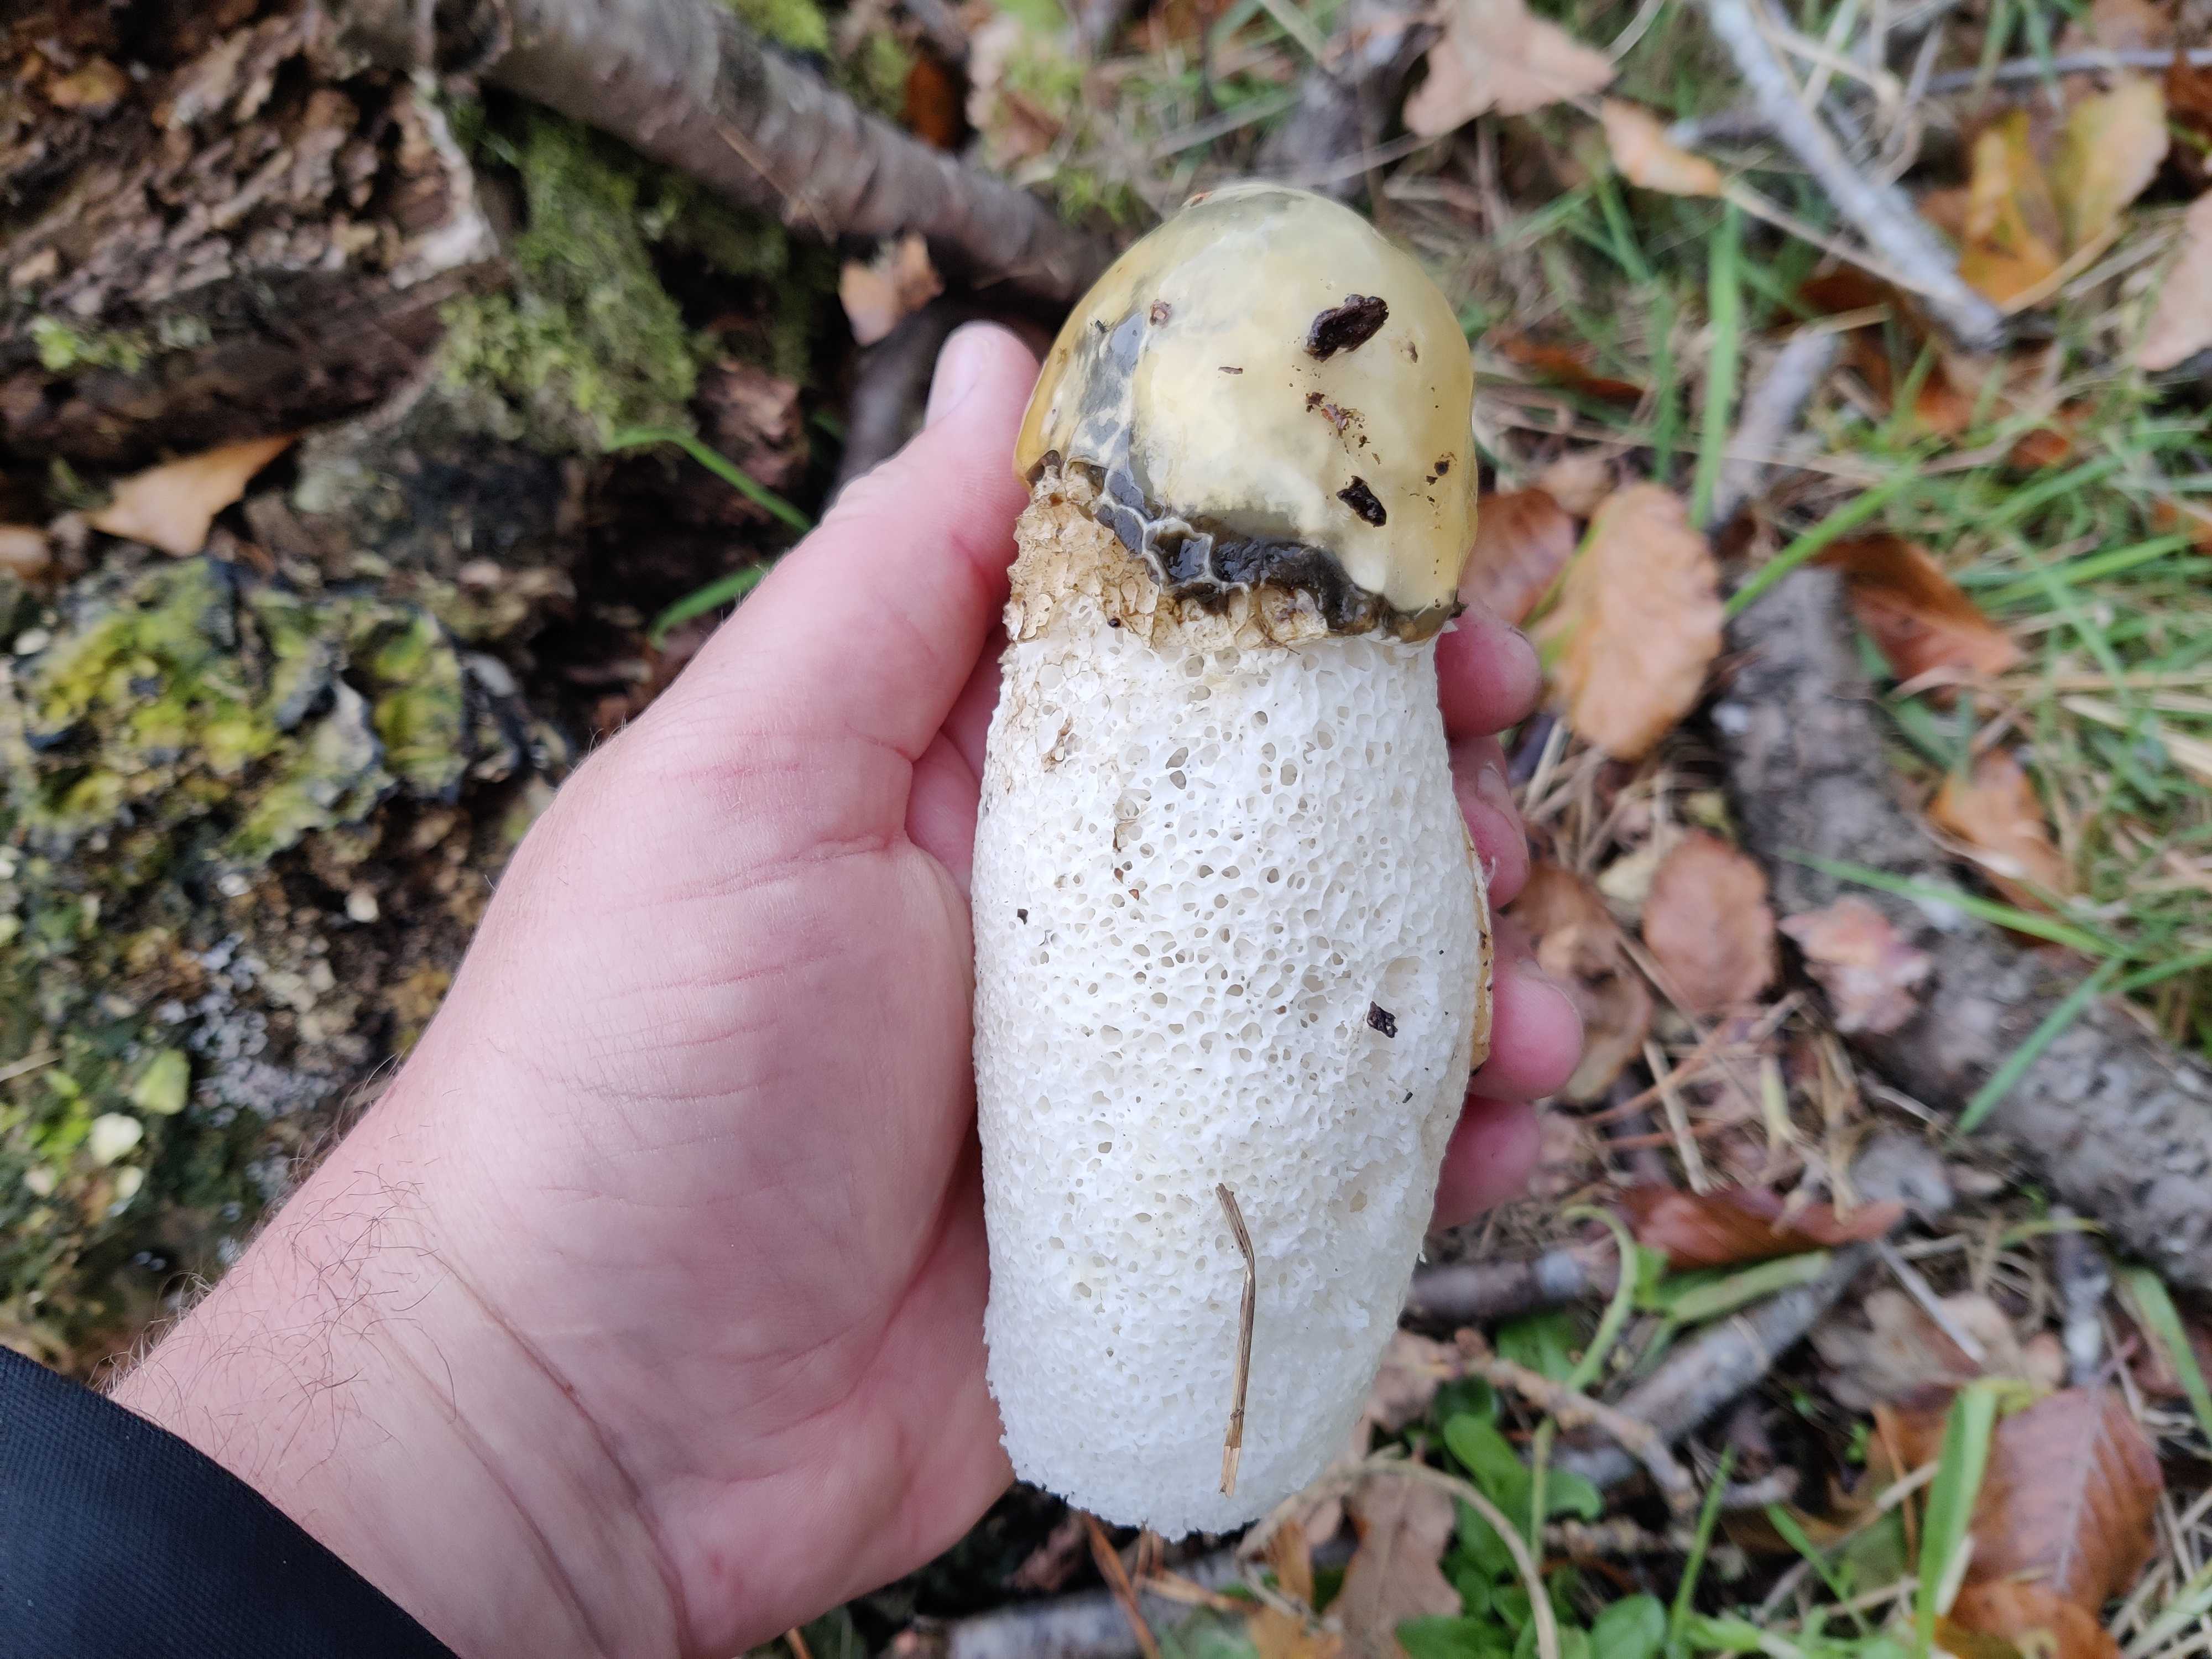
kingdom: Fungi
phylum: Basidiomycota
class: Agaricomycetes
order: Phallales
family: Phallaceae
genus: Phallus
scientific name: Phallus impudicus
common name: almindelig stinksvamp
